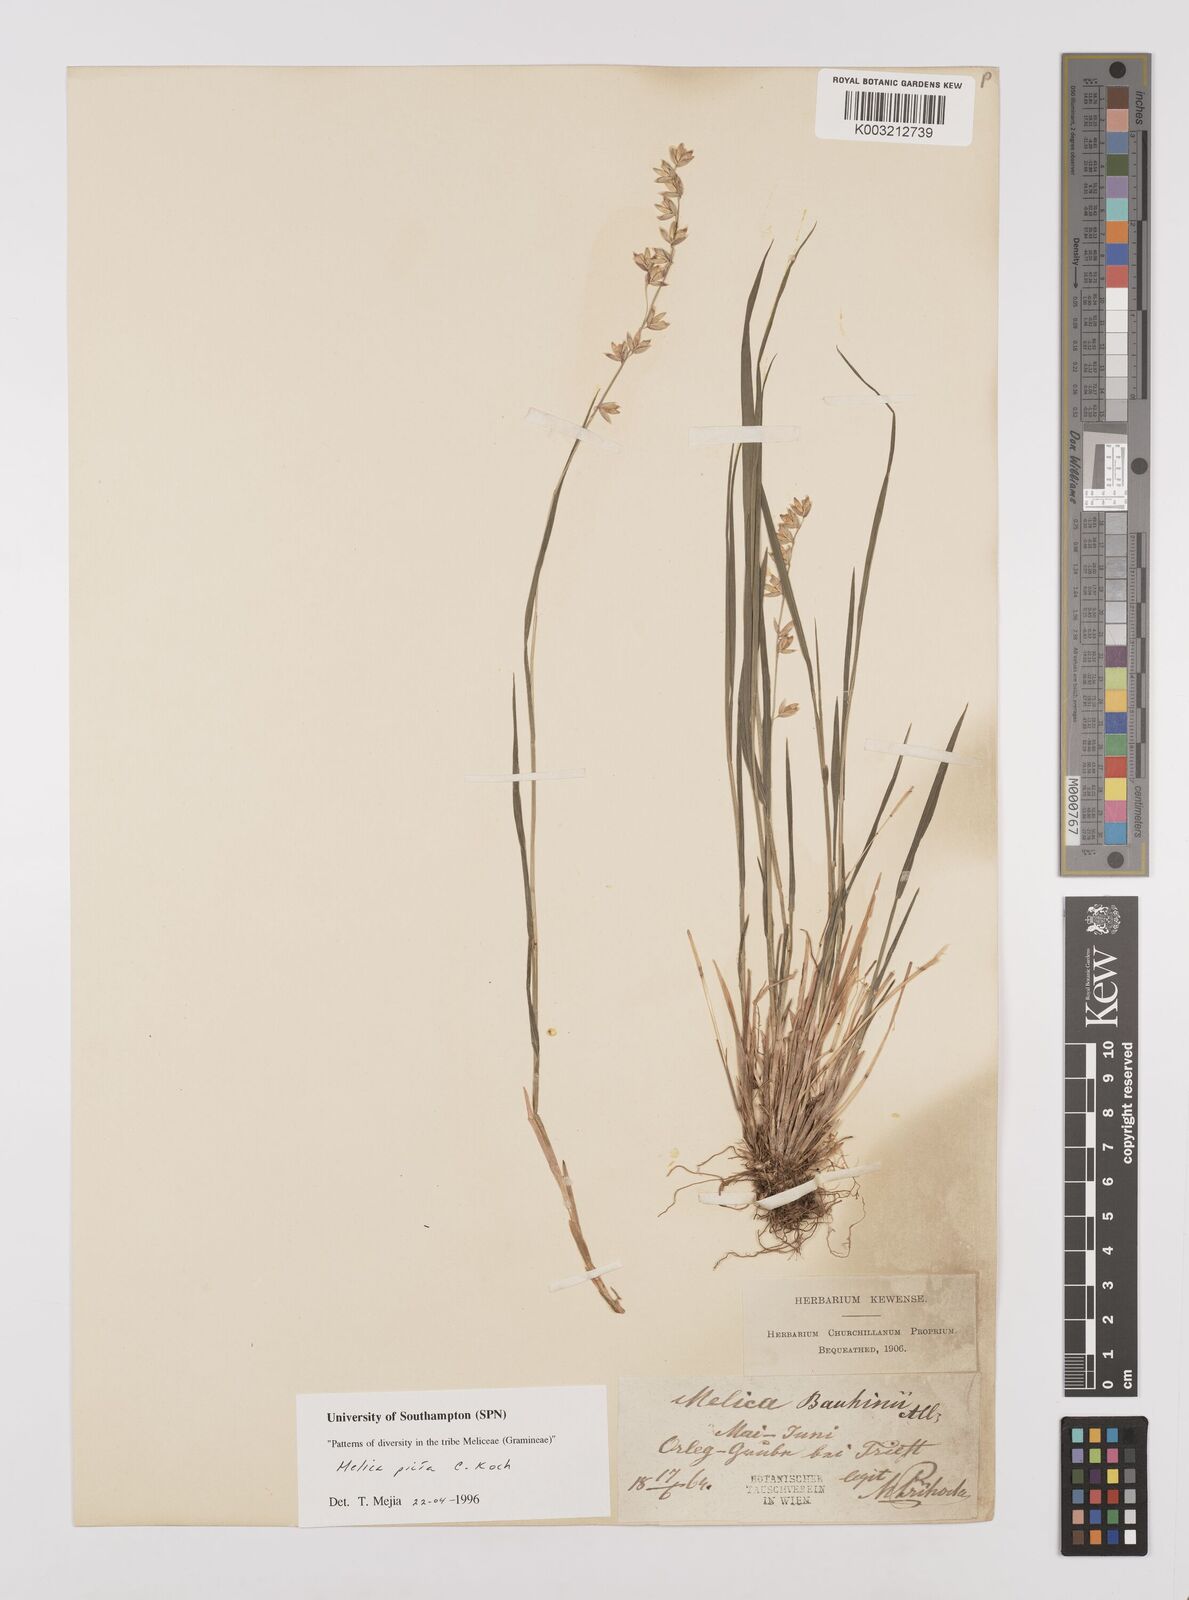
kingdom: Plantae
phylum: Tracheophyta
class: Liliopsida
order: Poales
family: Poaceae
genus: Melica
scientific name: Melica picta
